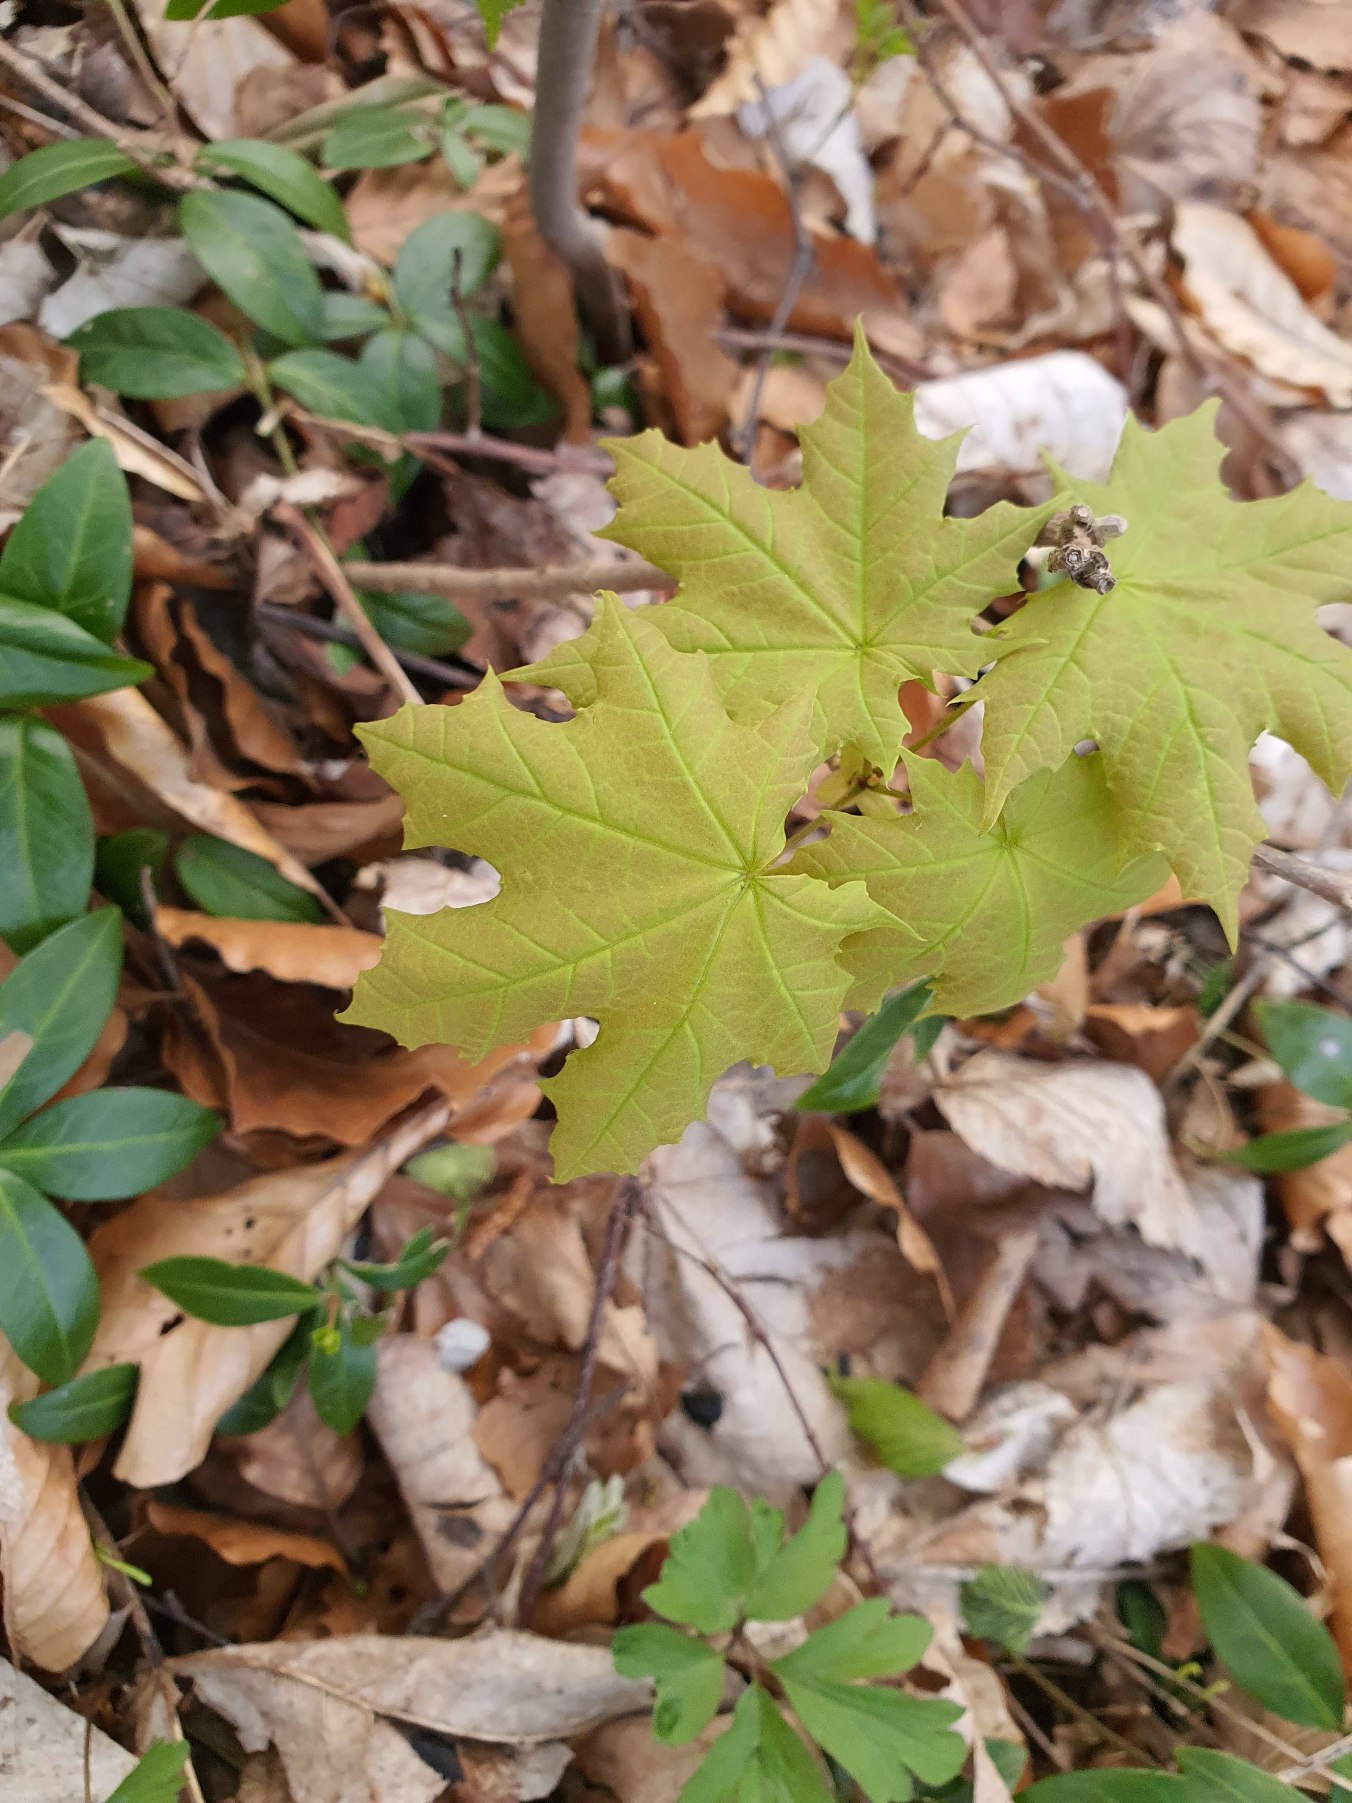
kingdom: Plantae
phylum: Tracheophyta
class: Magnoliopsida
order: Sapindales
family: Sapindaceae
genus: Acer
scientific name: Acer platanoides
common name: Spids-løn
